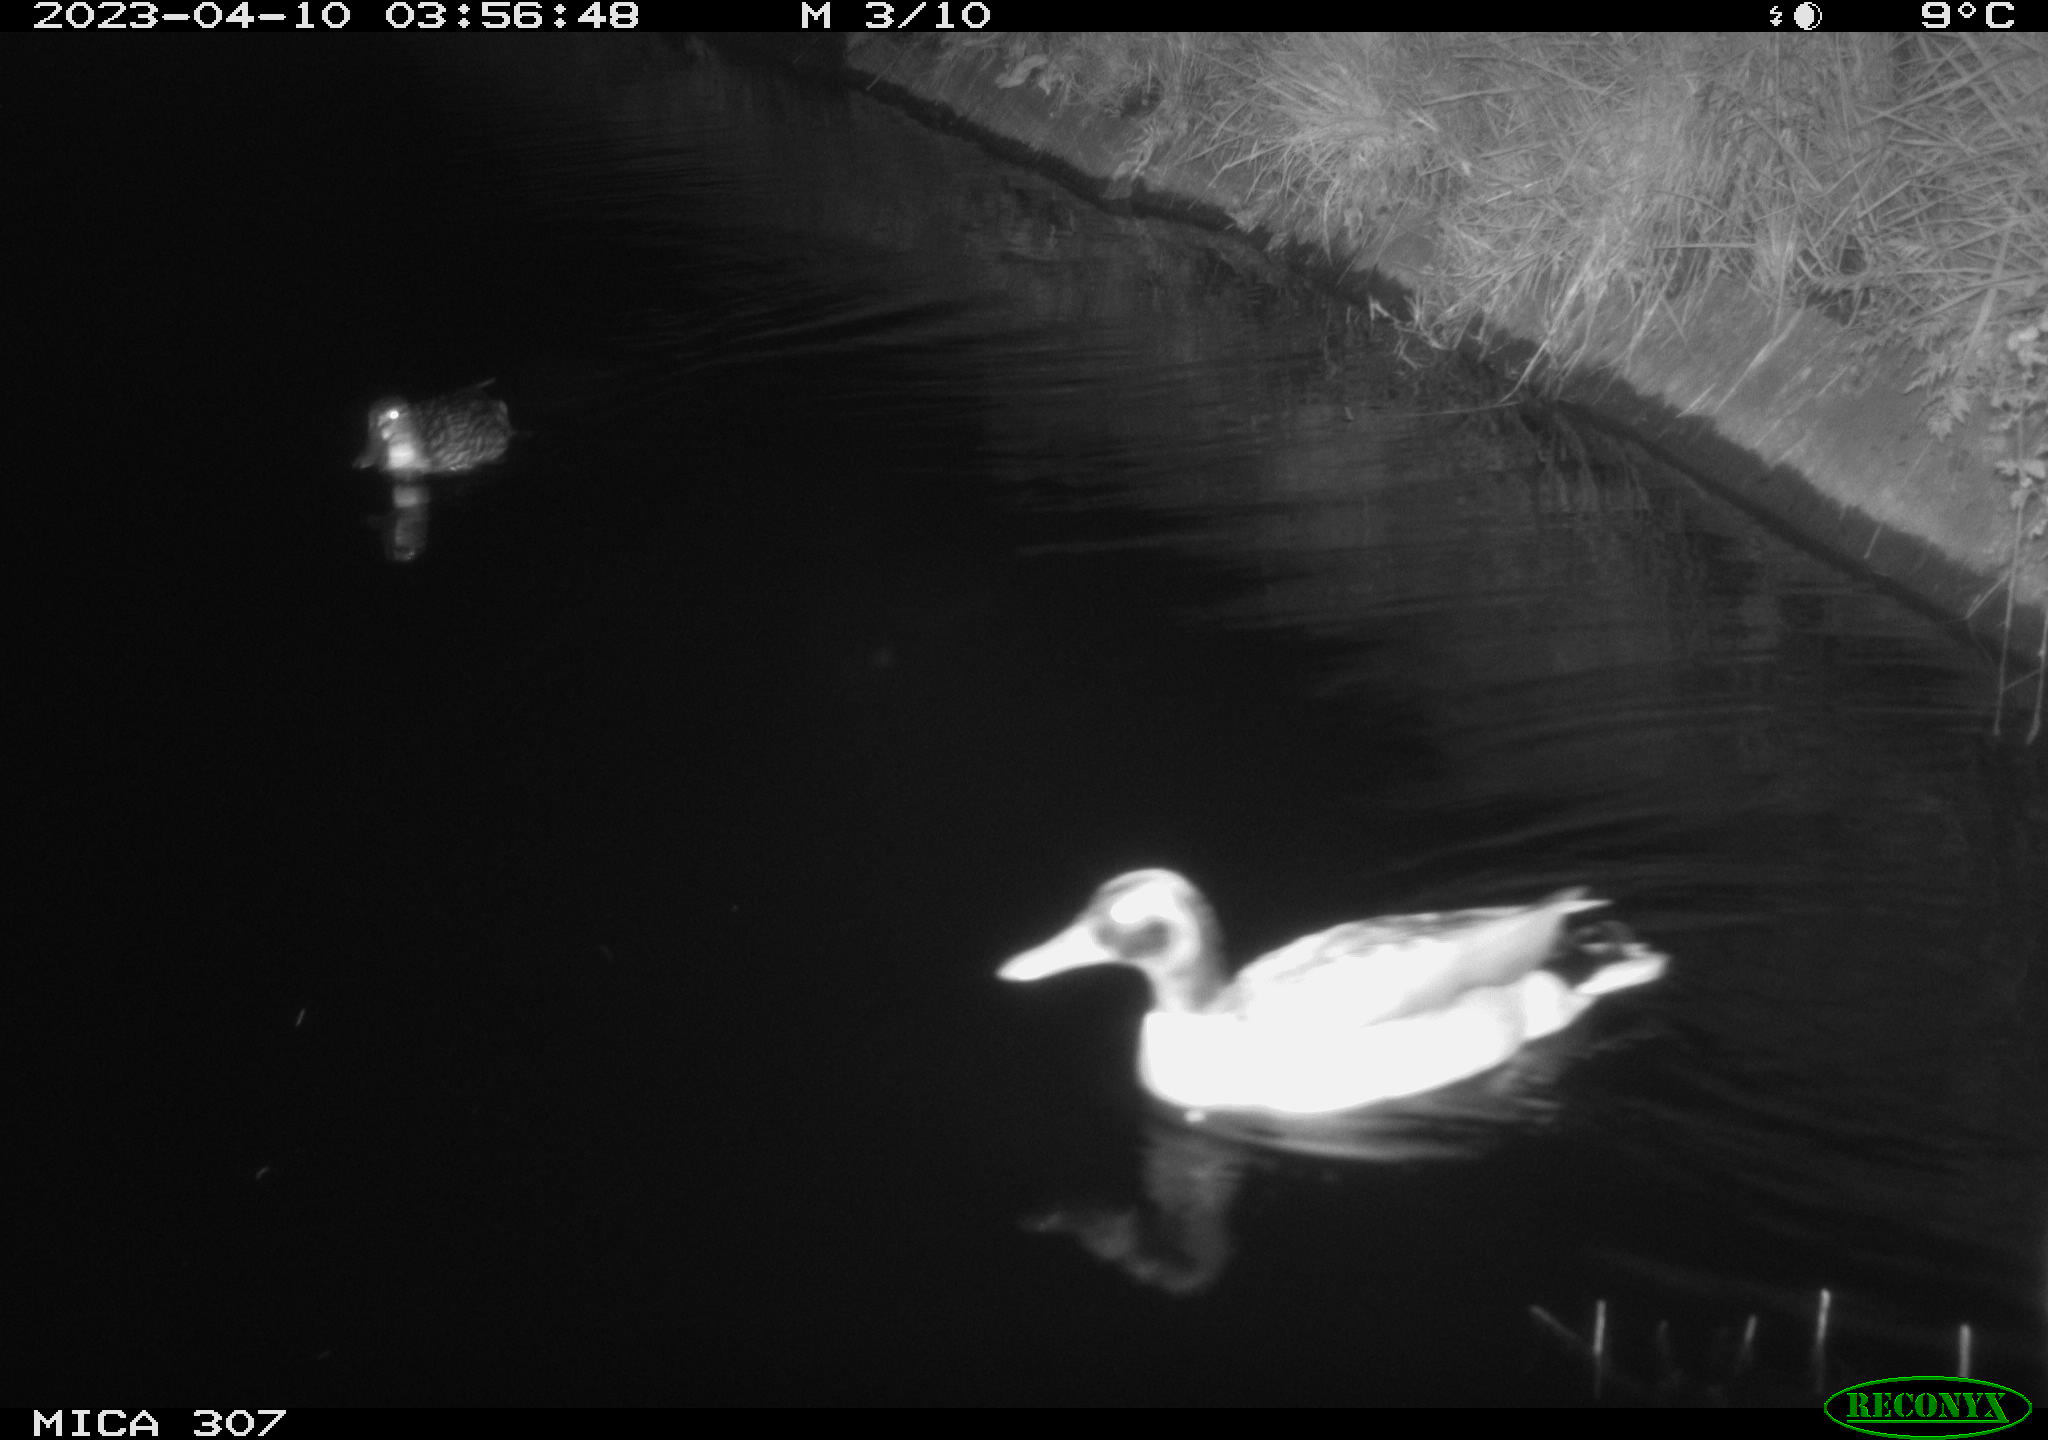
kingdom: Animalia
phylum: Chordata
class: Aves
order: Anseriformes
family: Anatidae
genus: Anas
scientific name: Anas
